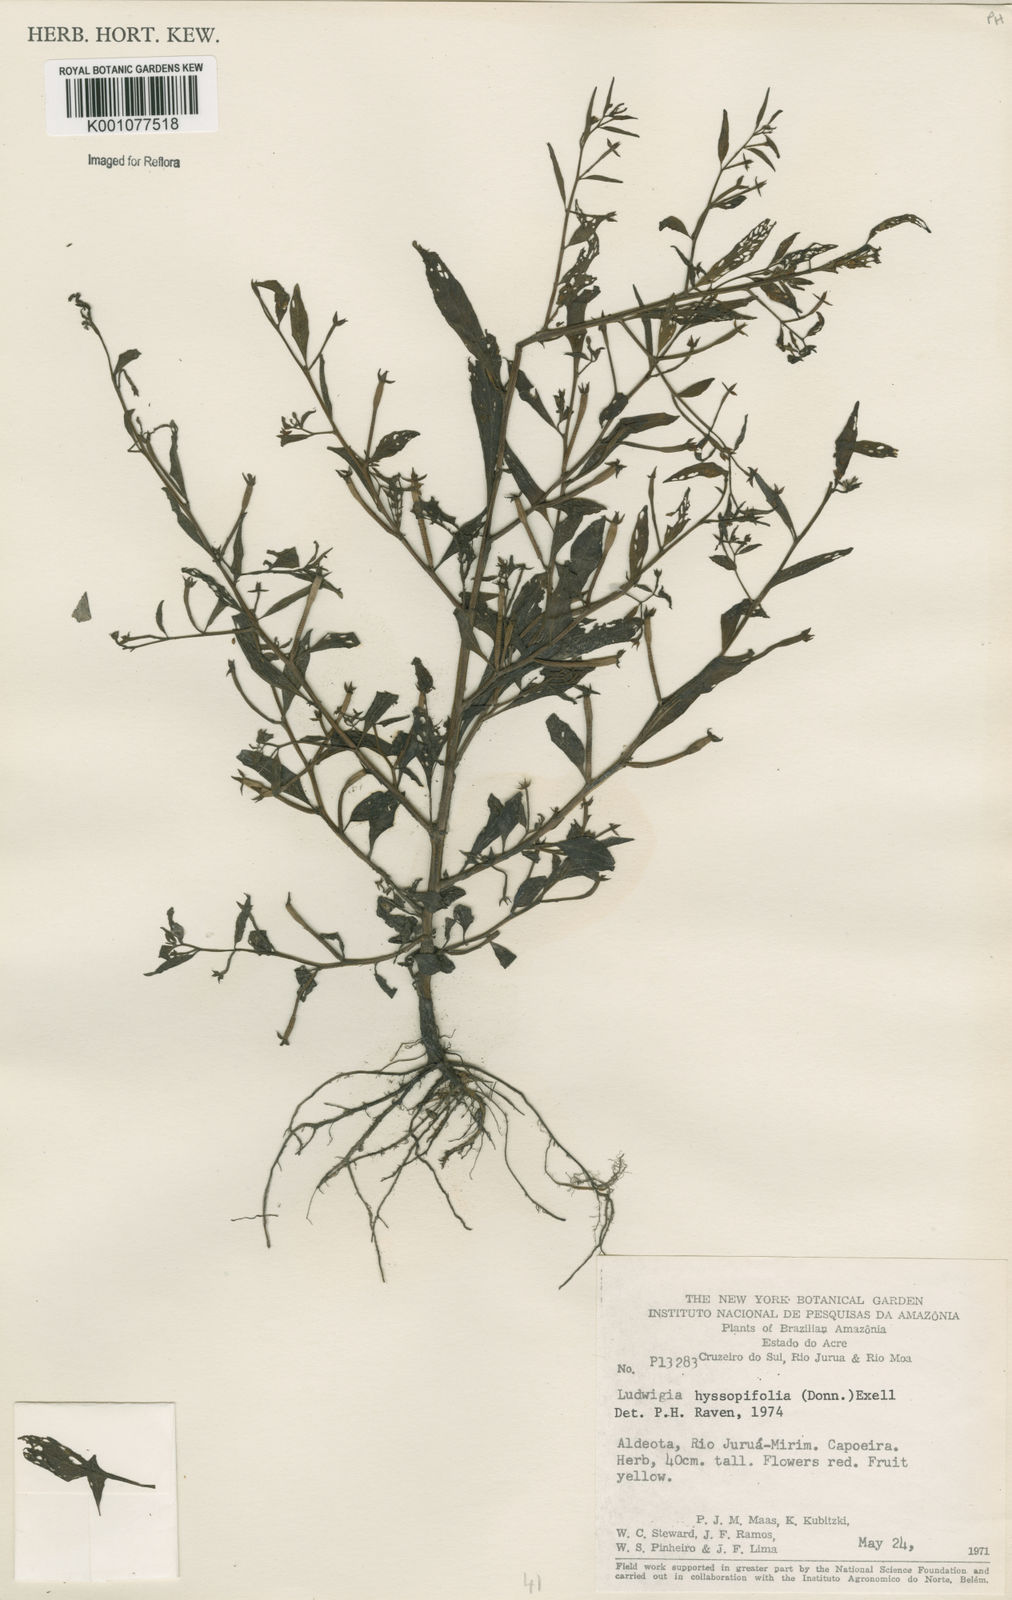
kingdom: Plantae
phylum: Tracheophyta
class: Magnoliopsida
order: Myrtales
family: Onagraceae
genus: Ludwigia
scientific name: Ludwigia hyssopifolia
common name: Linear leaf water primrose
